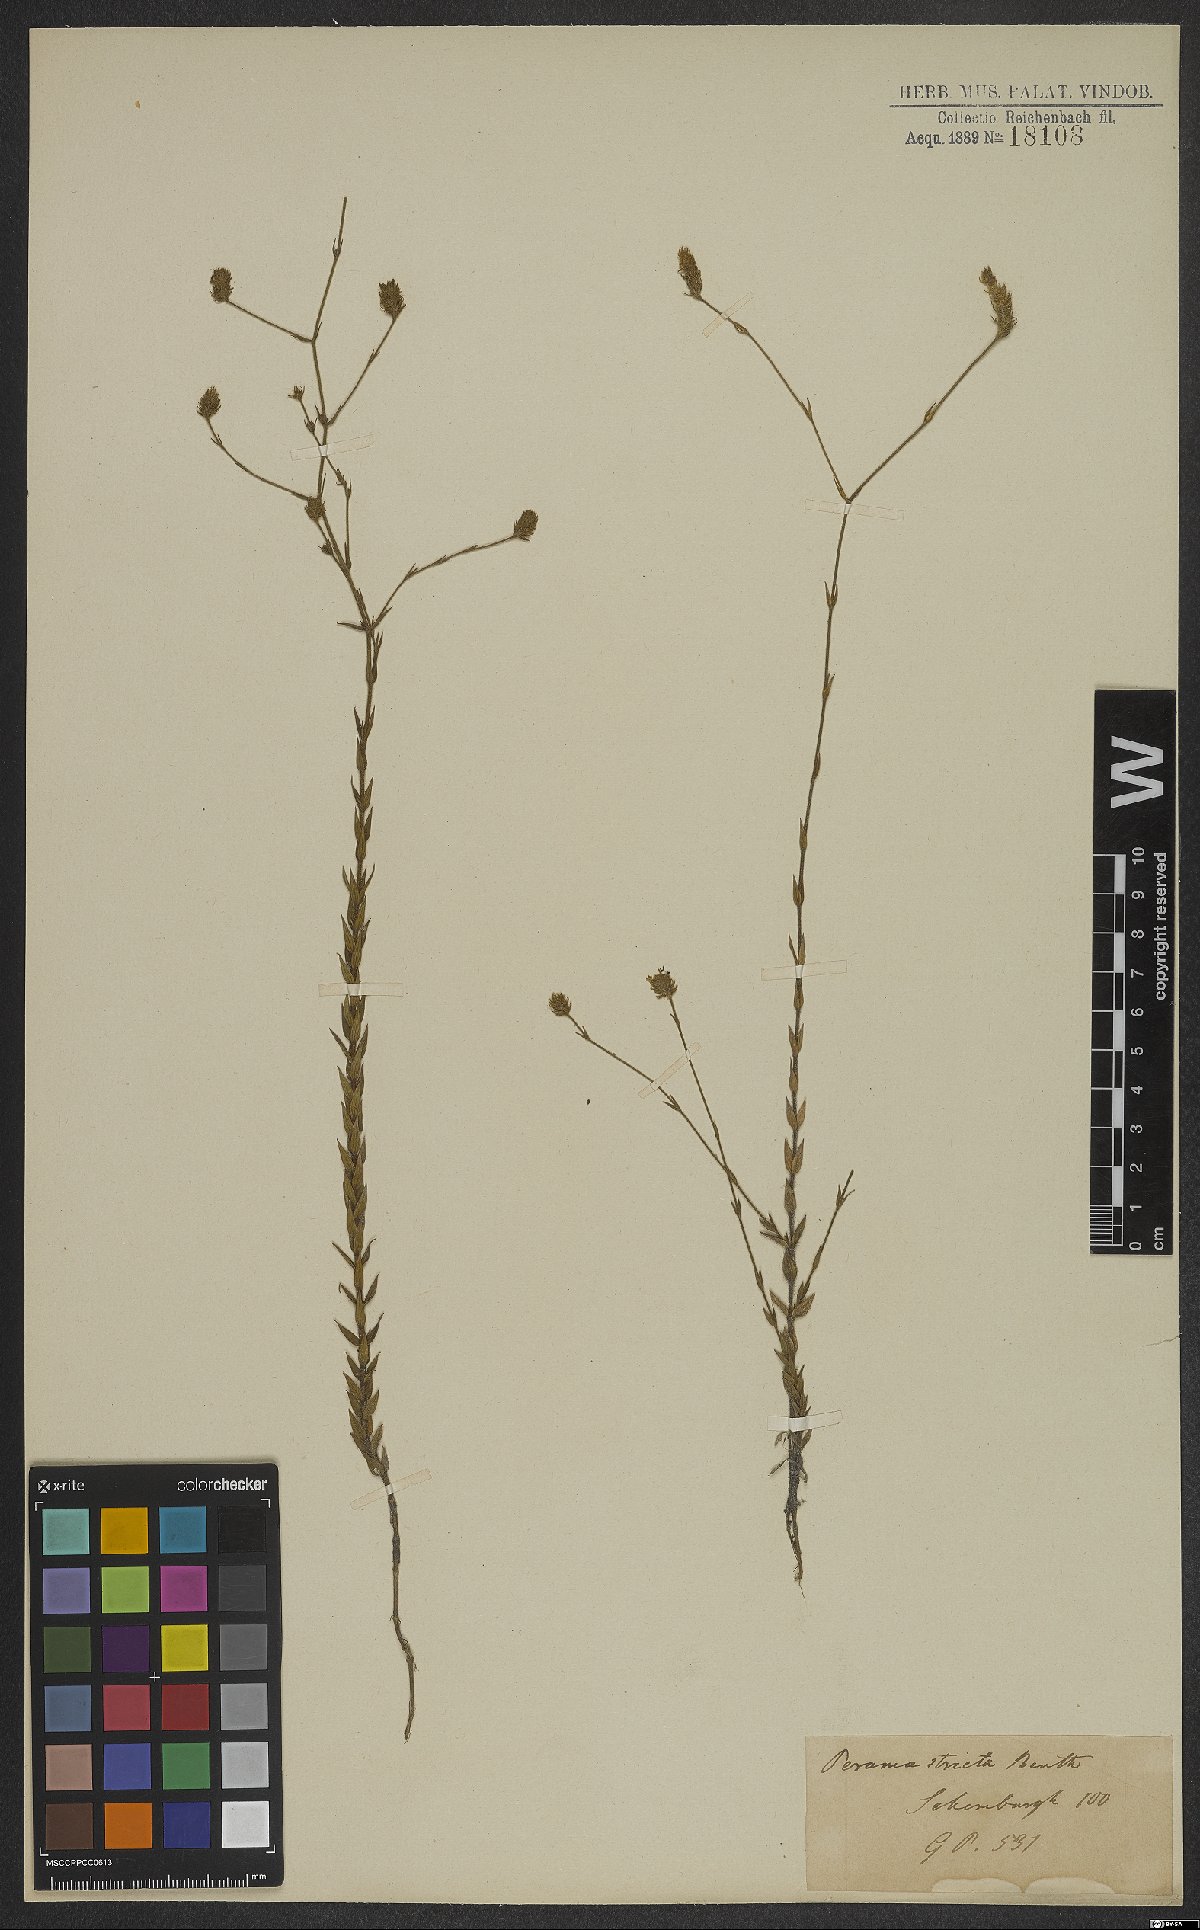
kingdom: Plantae
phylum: Tracheophyta
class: Magnoliopsida
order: Gentianales
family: Rubiaceae
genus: Perama
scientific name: Perama hirsuta
